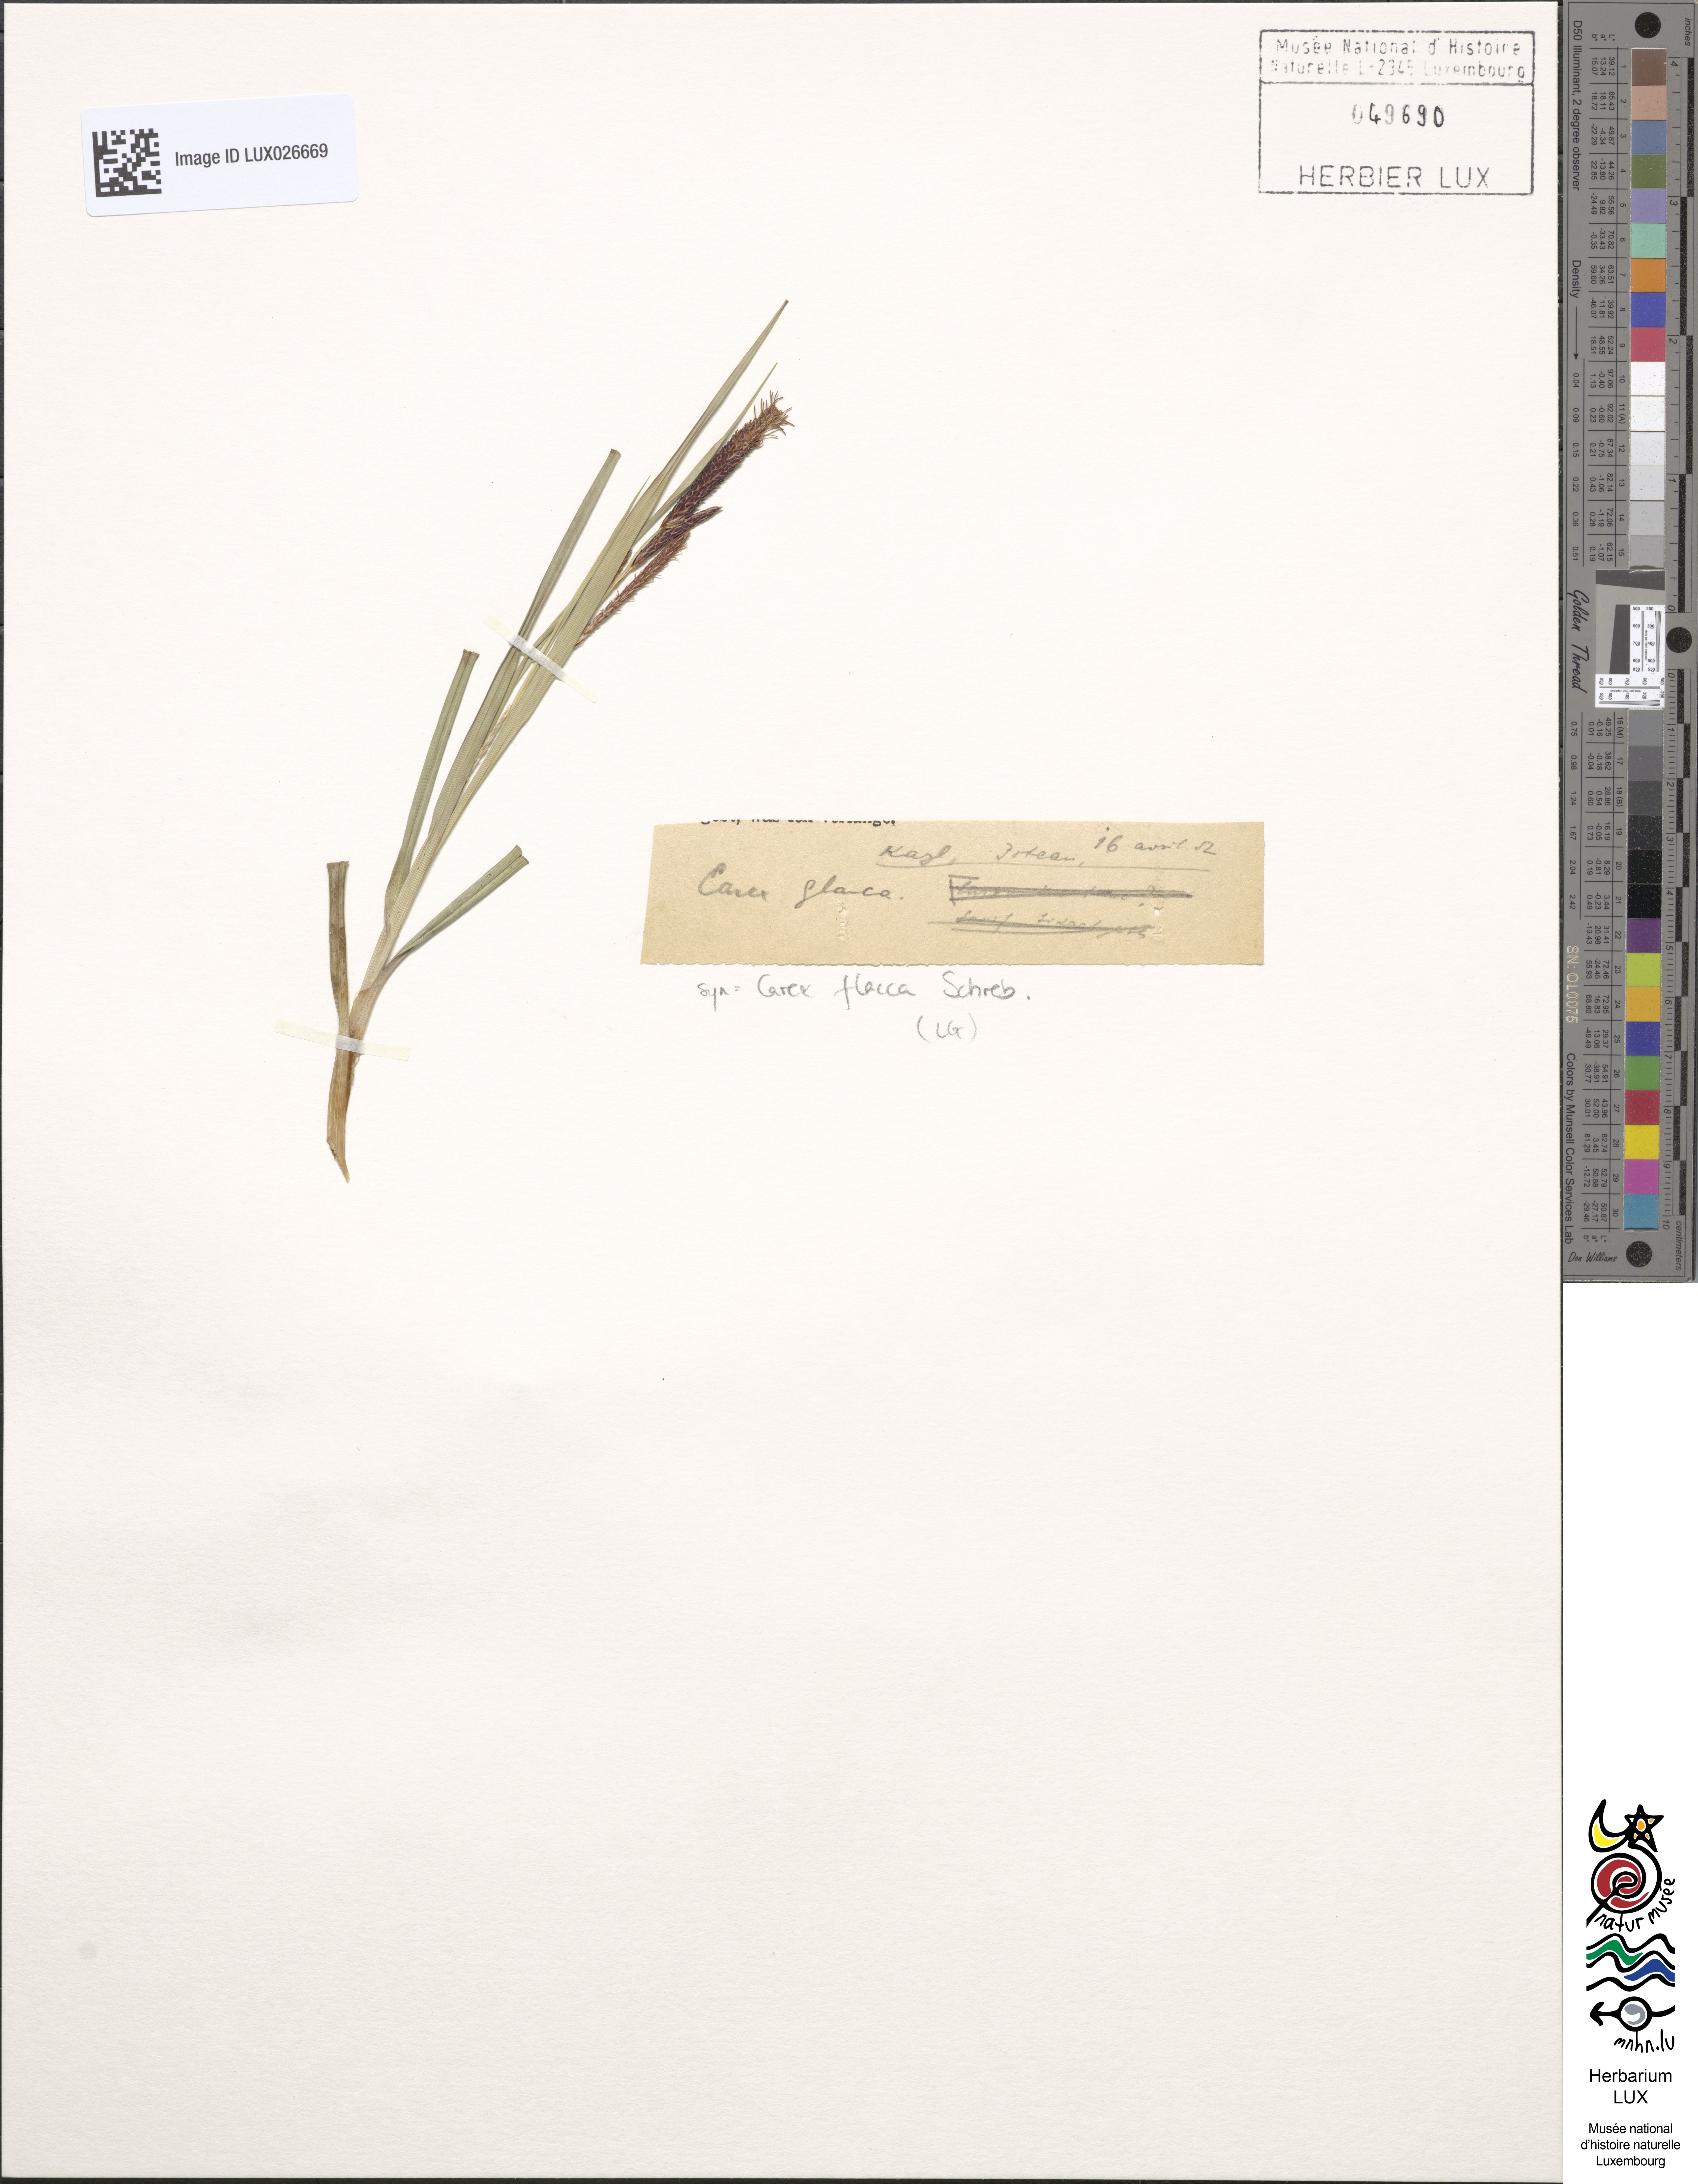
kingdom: Plantae
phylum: Tracheophyta
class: Liliopsida
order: Poales
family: Cyperaceae
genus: Carex
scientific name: Carex flacca
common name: Glaucous sedge
